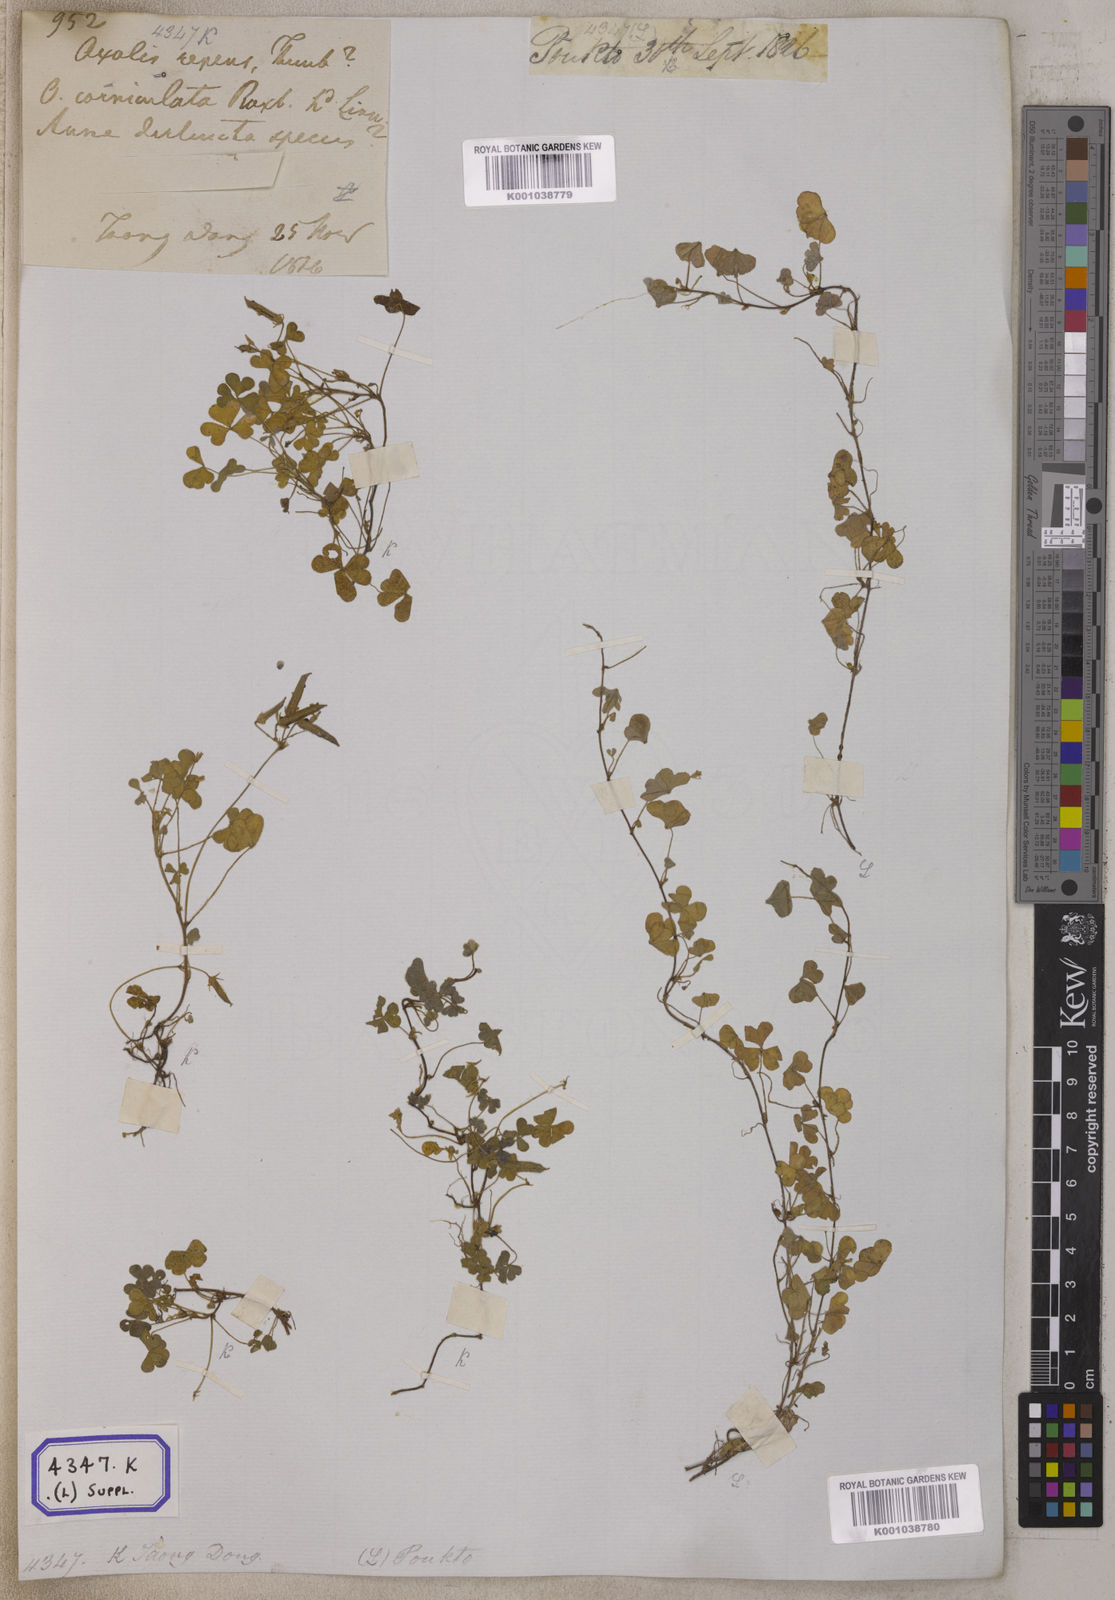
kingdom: Plantae
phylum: Tracheophyta
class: Magnoliopsida
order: Oxalidales
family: Oxalidaceae
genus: Oxalis
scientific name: Oxalis corniculata
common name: Procumbent yellow-sorrel
